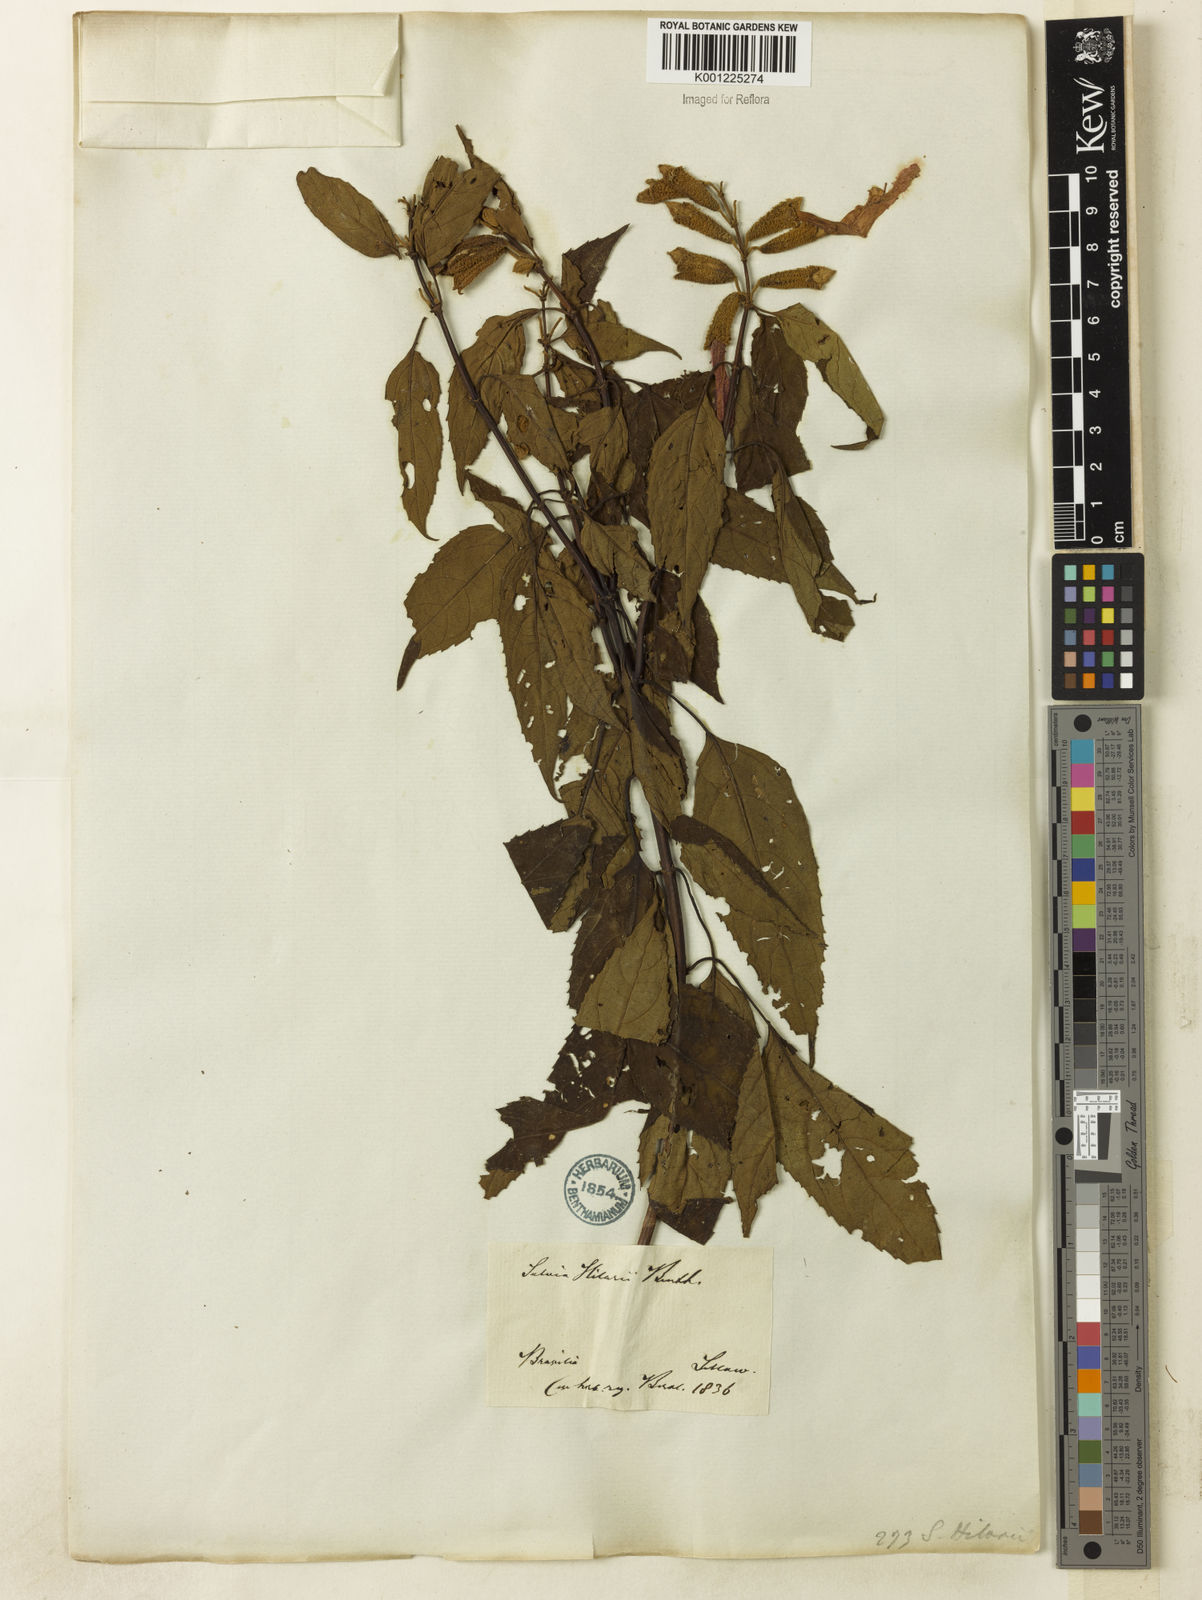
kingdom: Plantae
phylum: Tracheophyta
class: Magnoliopsida
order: Lamiales
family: Lamiaceae
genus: Salvia
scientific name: Salvia hilarii
